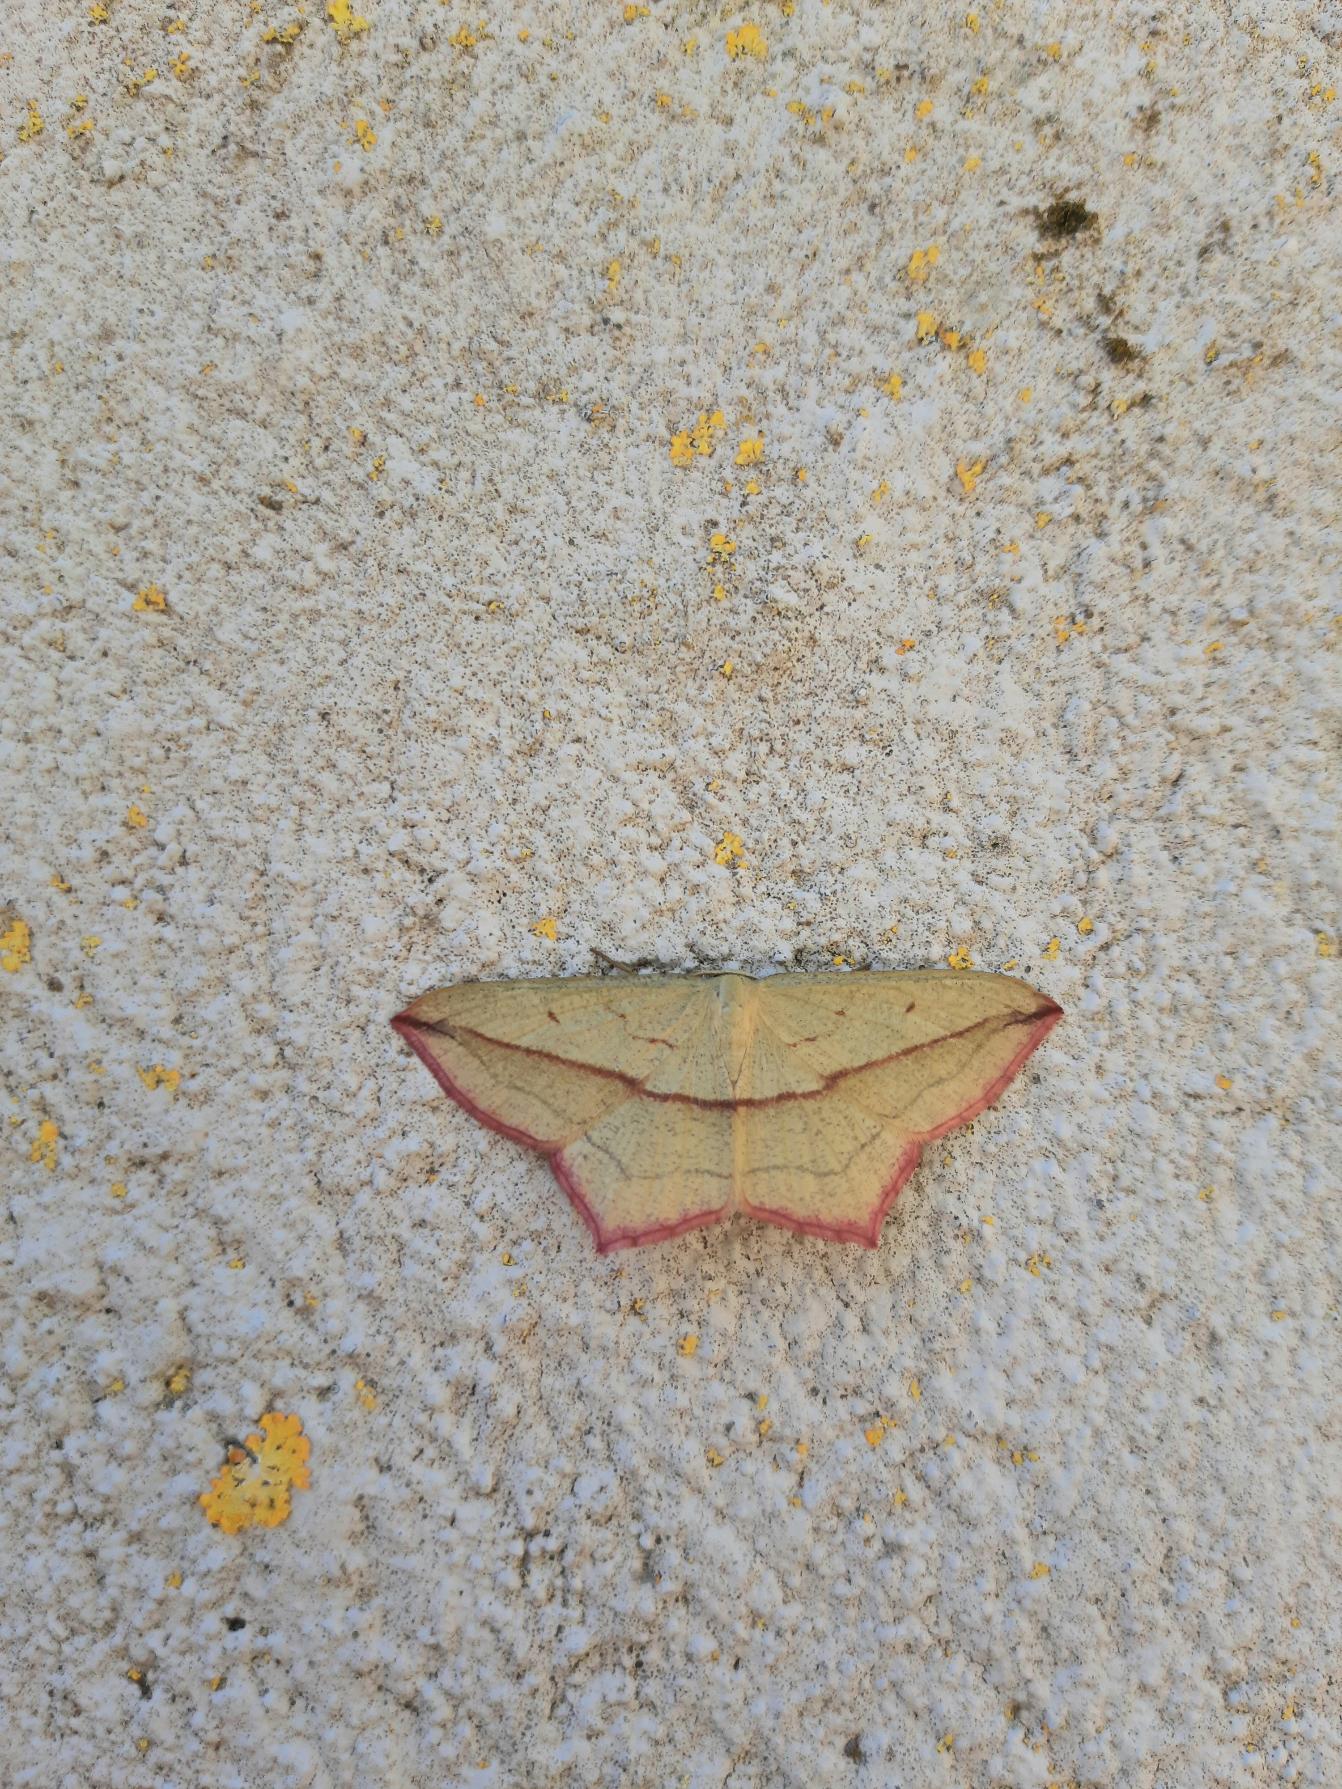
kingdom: Animalia
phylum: Arthropoda
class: Insecta
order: Lepidoptera
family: Geometridae
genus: Timandra
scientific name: Timandra comae
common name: Gul syremåler
